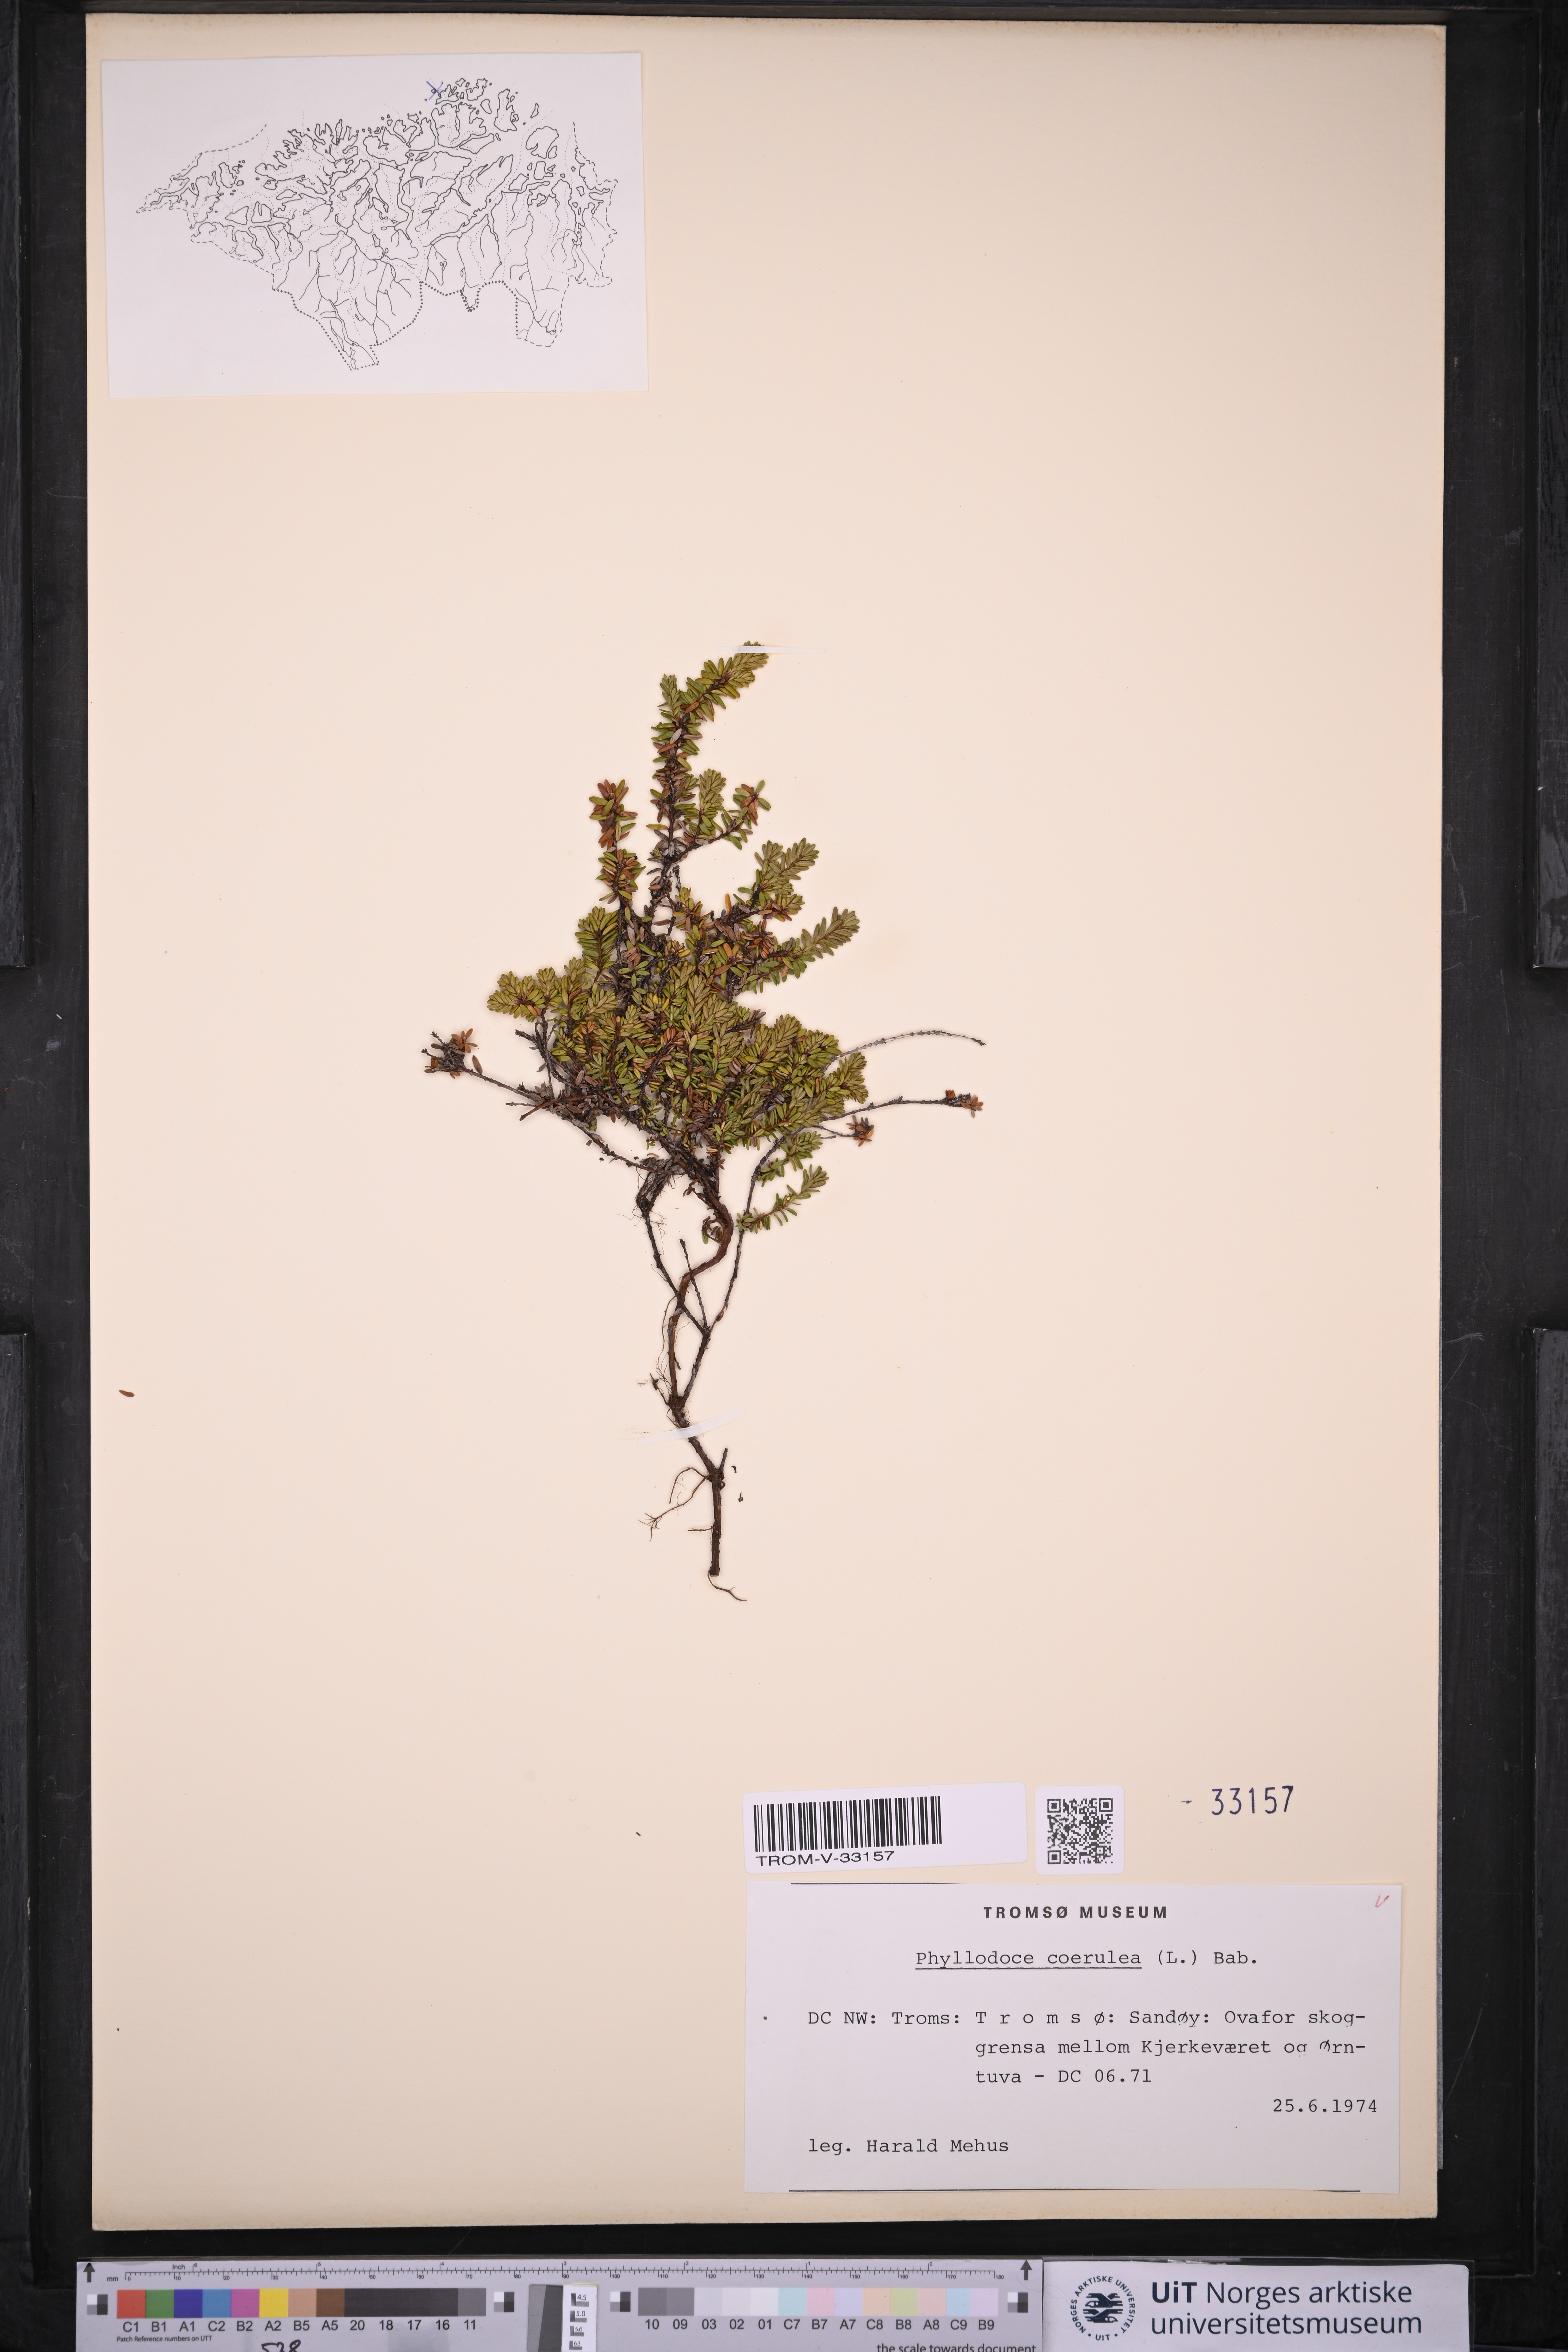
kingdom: Plantae
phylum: Tracheophyta
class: Magnoliopsida
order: Ericales
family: Ericaceae
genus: Phyllodoce
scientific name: Phyllodoce caerulea
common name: Blue heath
